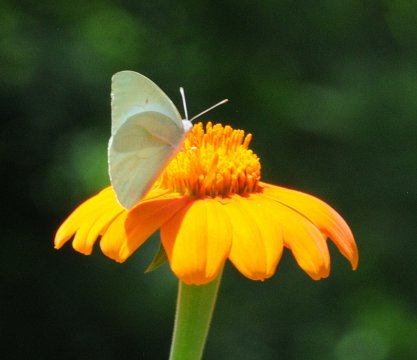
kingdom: Animalia
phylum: Arthropoda
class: Insecta
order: Lepidoptera
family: Pieridae
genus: Catopsilia
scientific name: Catopsilia florella
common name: African Migrant
